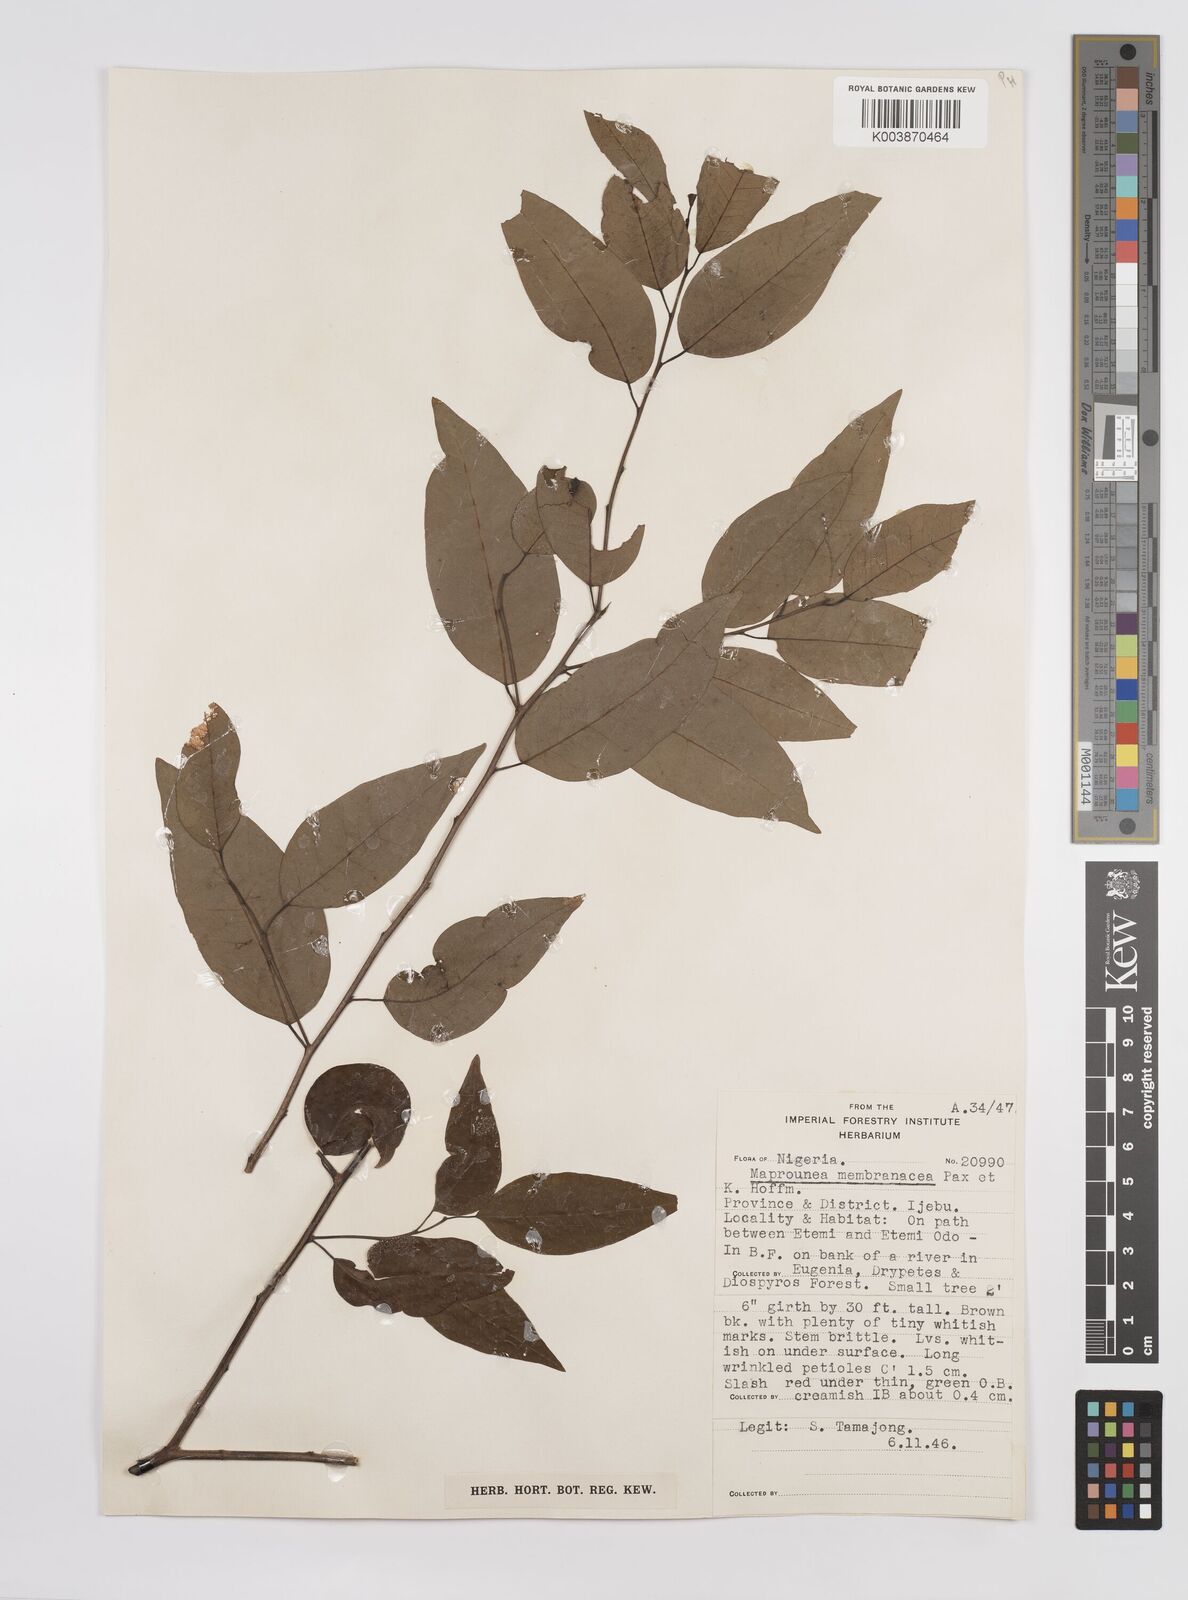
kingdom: Plantae
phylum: Tracheophyta
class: Magnoliopsida
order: Malpighiales
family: Euphorbiaceae
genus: Maprounea
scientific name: Maprounea membranacea
